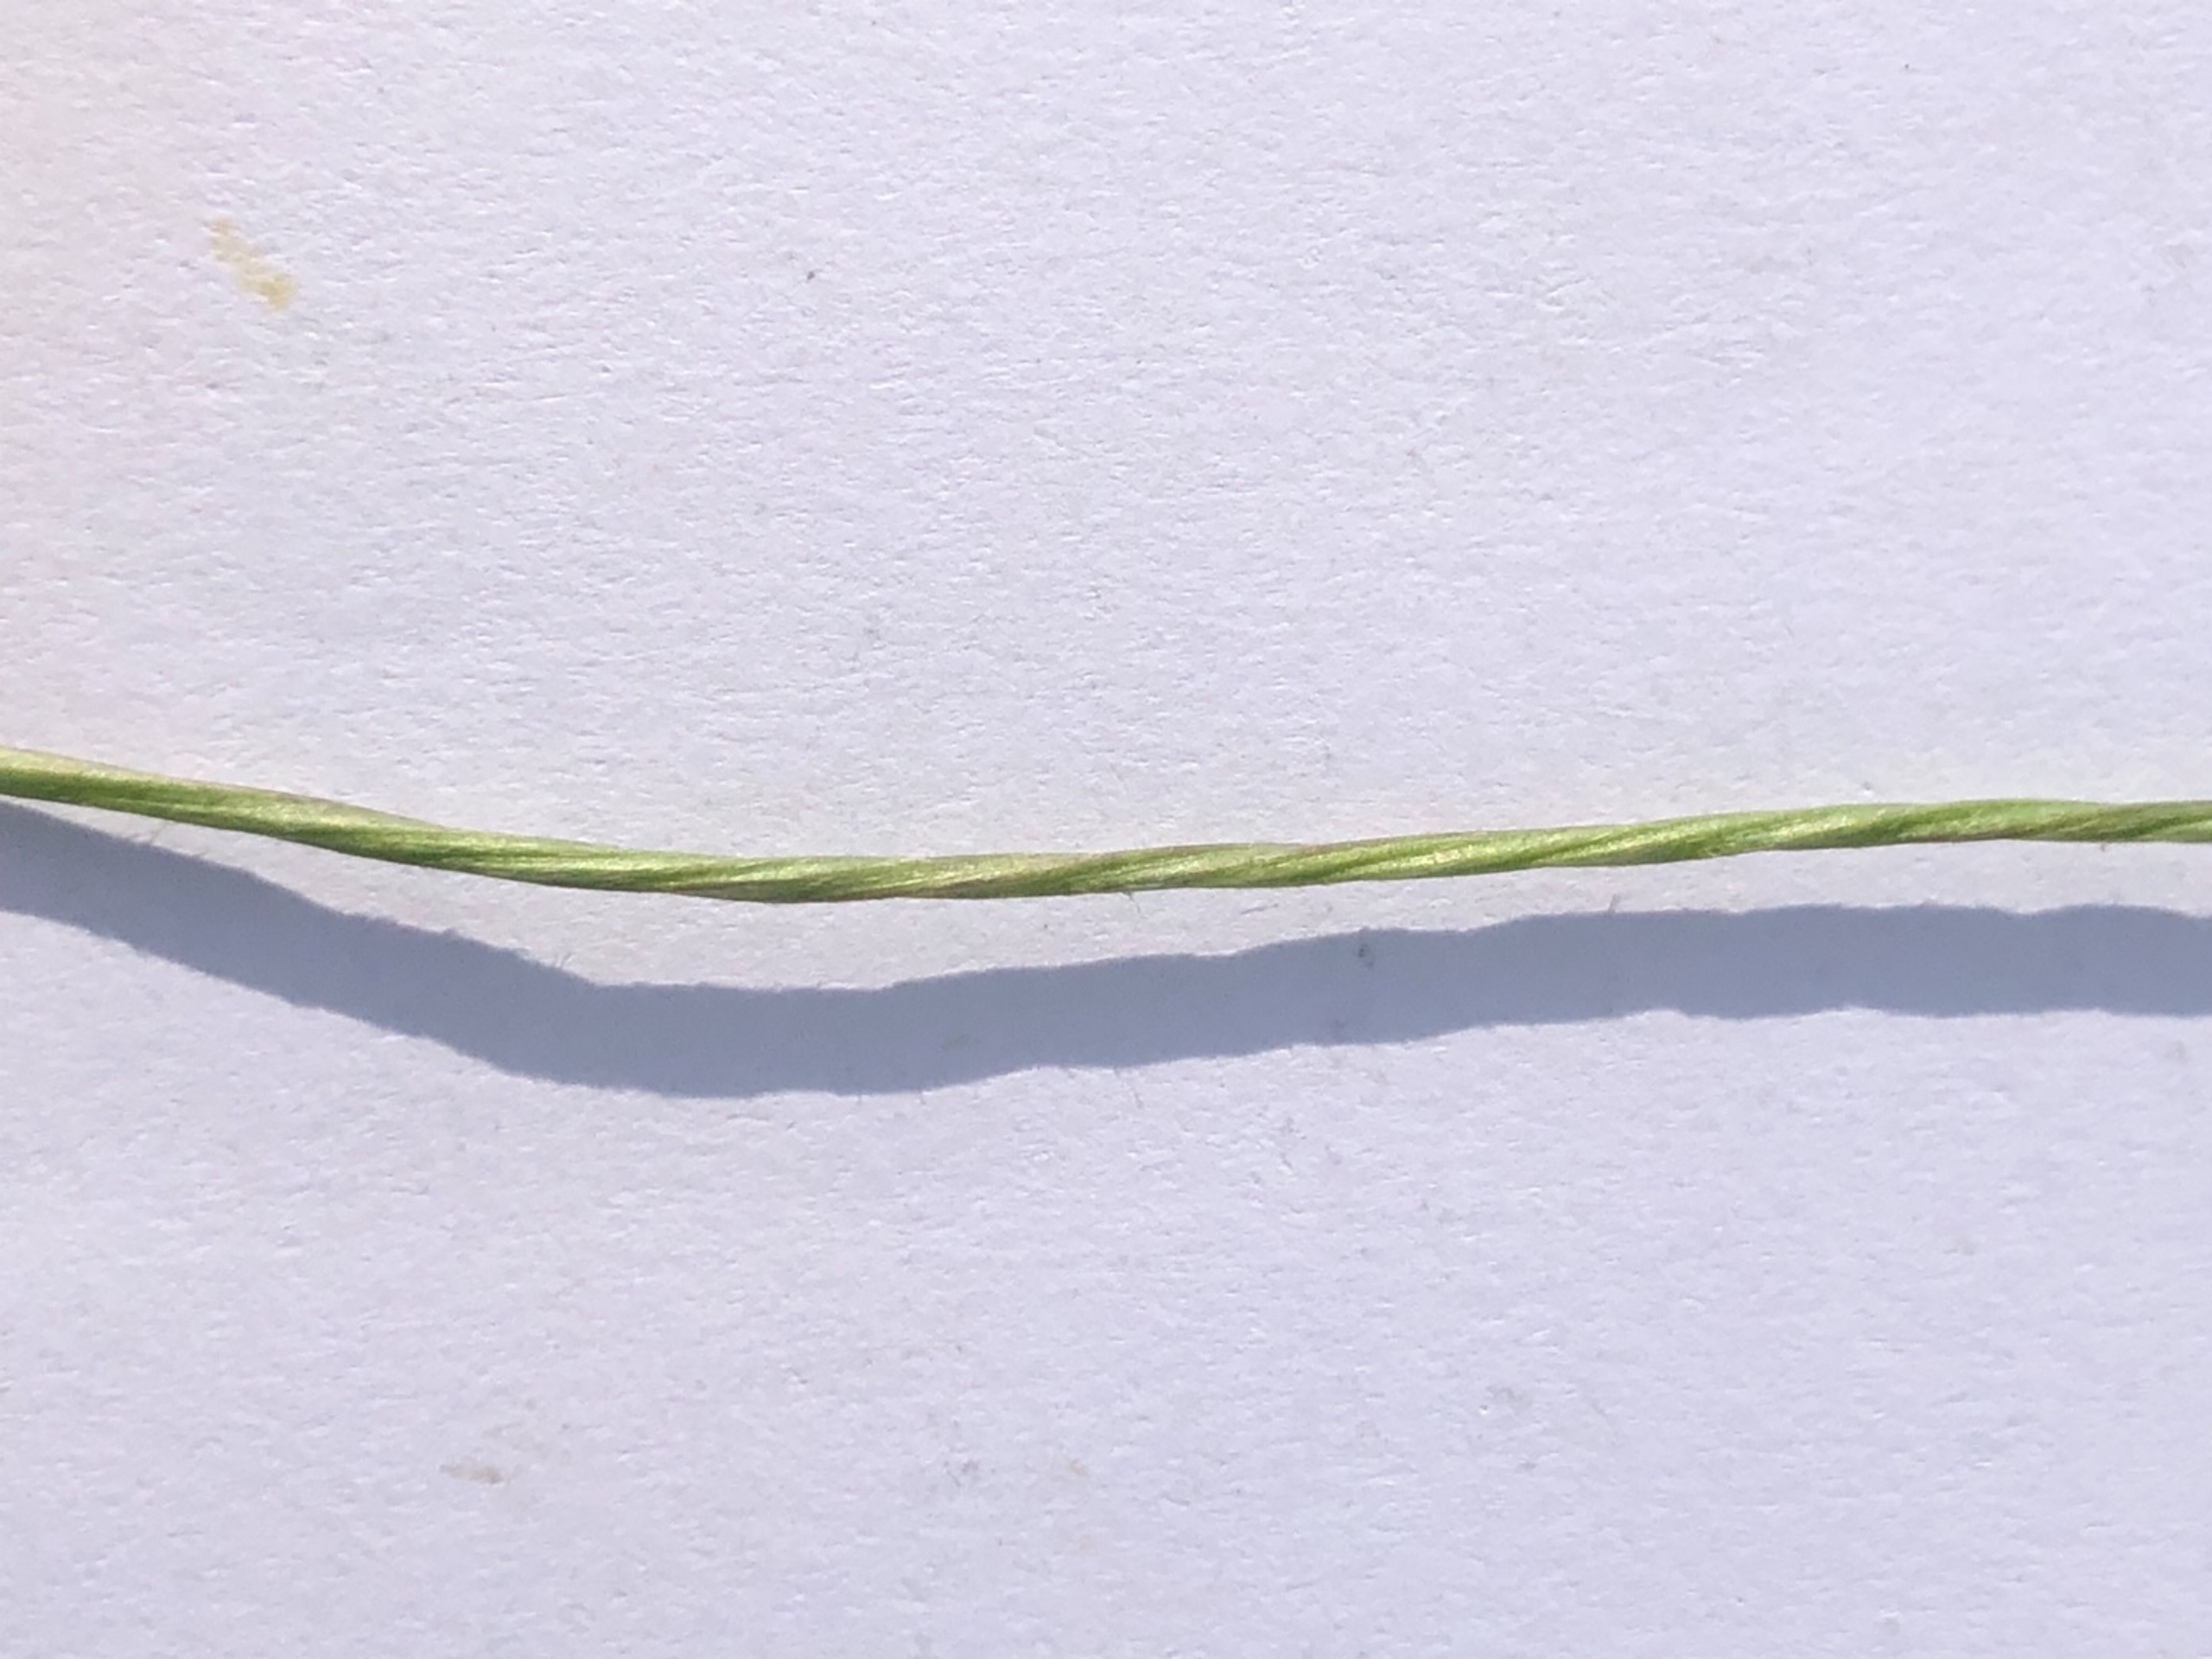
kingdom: Plantae
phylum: Tracheophyta
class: Magnoliopsida
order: Lamiales
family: Plantaginaceae
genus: Plantago
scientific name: Plantago lanceolata
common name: Lancet-vejbred
